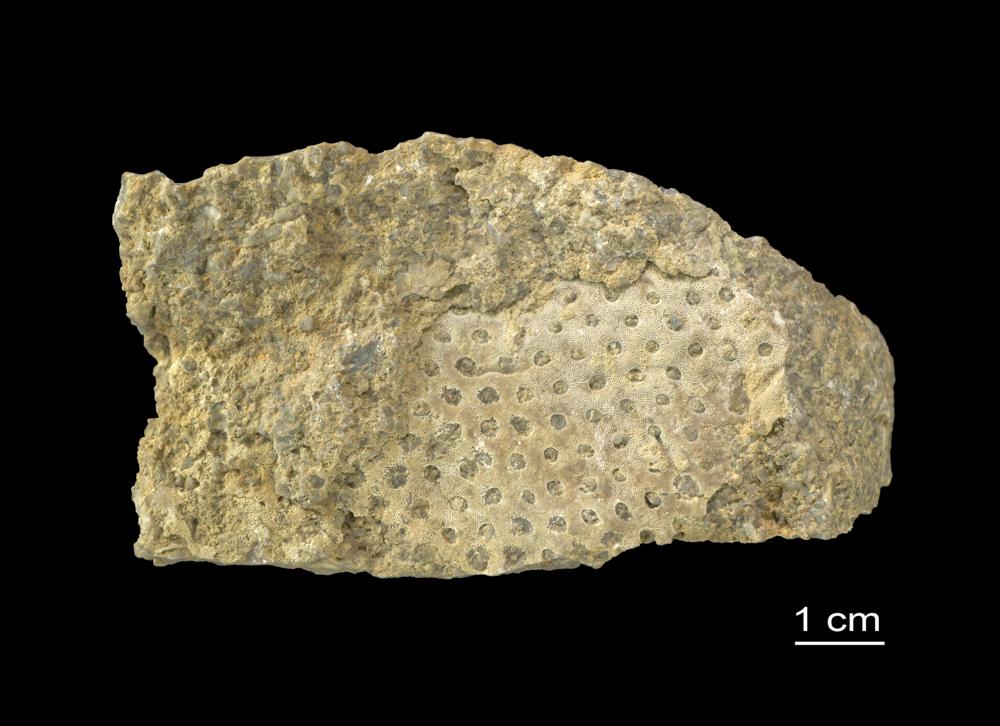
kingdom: Animalia
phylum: Bryozoa
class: Stenolaemata
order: Cryptostomida
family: Escharoporidae
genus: Graptodictya
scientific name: Graptodictya proava
